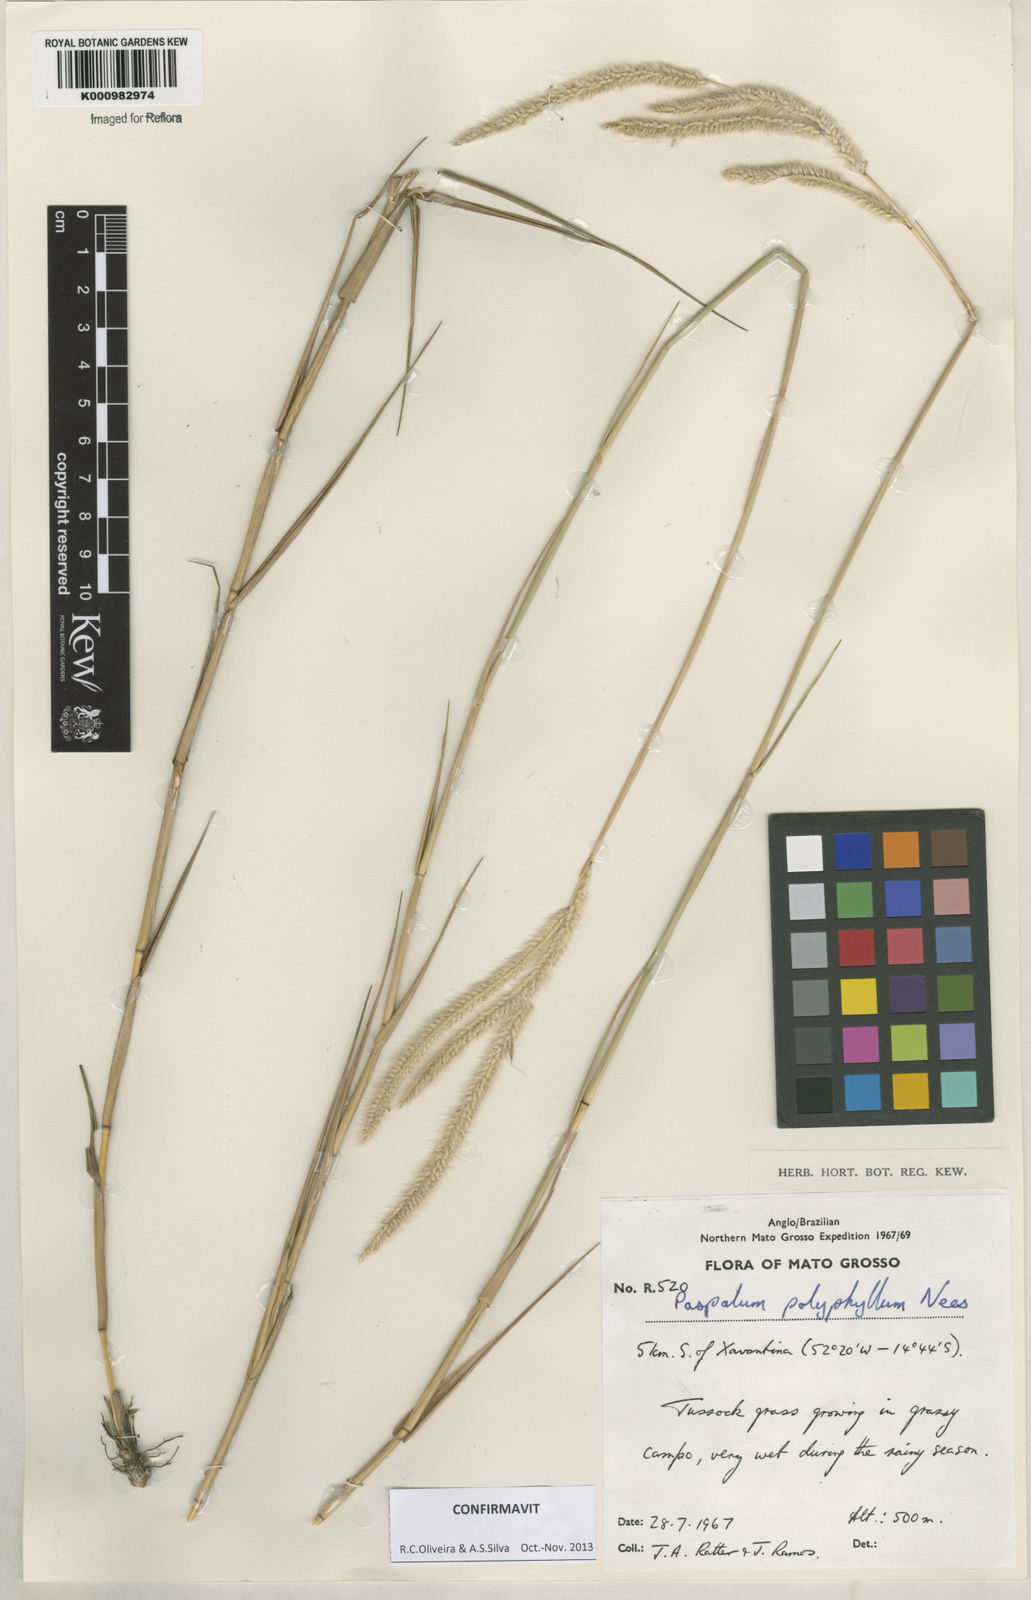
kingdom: Plantae
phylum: Tracheophyta
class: Liliopsida
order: Poales
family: Poaceae
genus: Paspalum
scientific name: Paspalum
